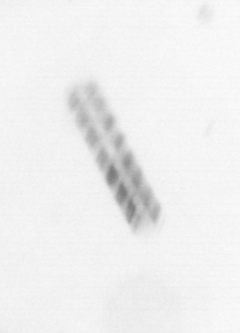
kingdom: Chromista
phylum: Ochrophyta
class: Bacillariophyceae
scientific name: Bacillariophyceae
